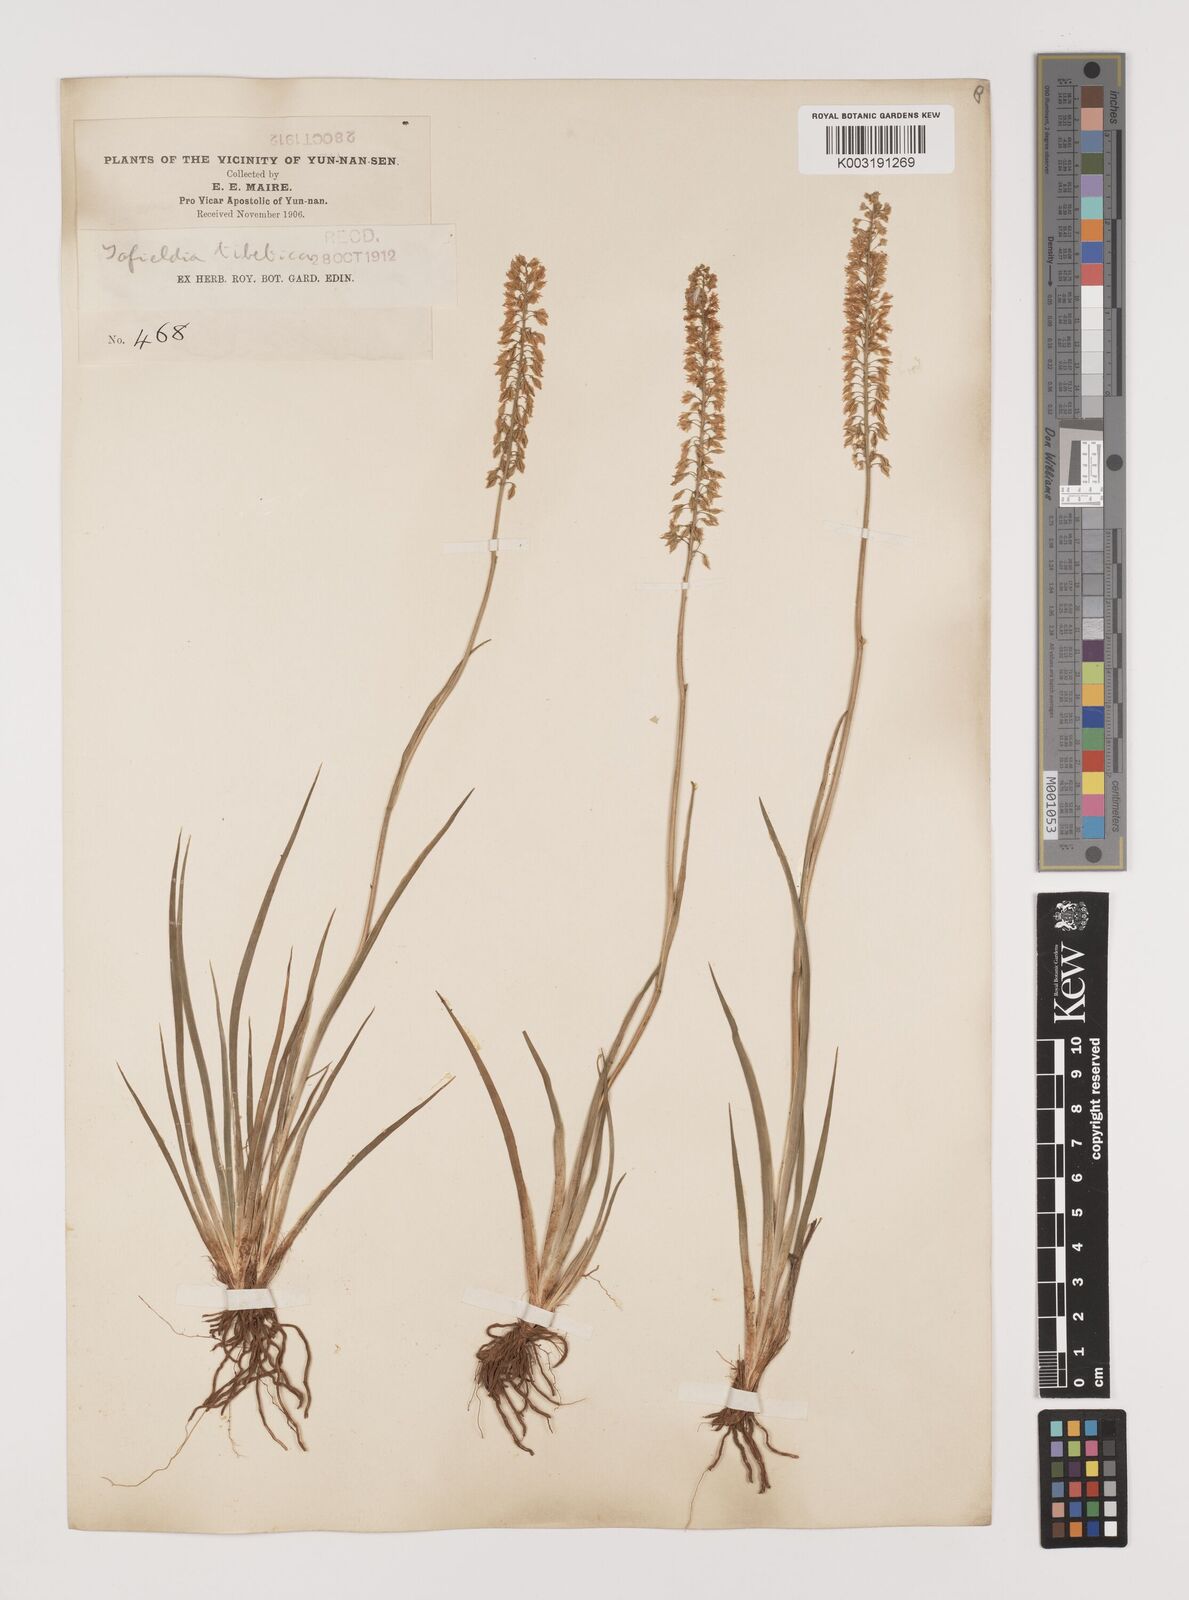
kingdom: Plantae
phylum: Tracheophyta
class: Liliopsida
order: Alismatales
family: Tofieldiaceae
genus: Tofieldia
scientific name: Tofieldia divergens
